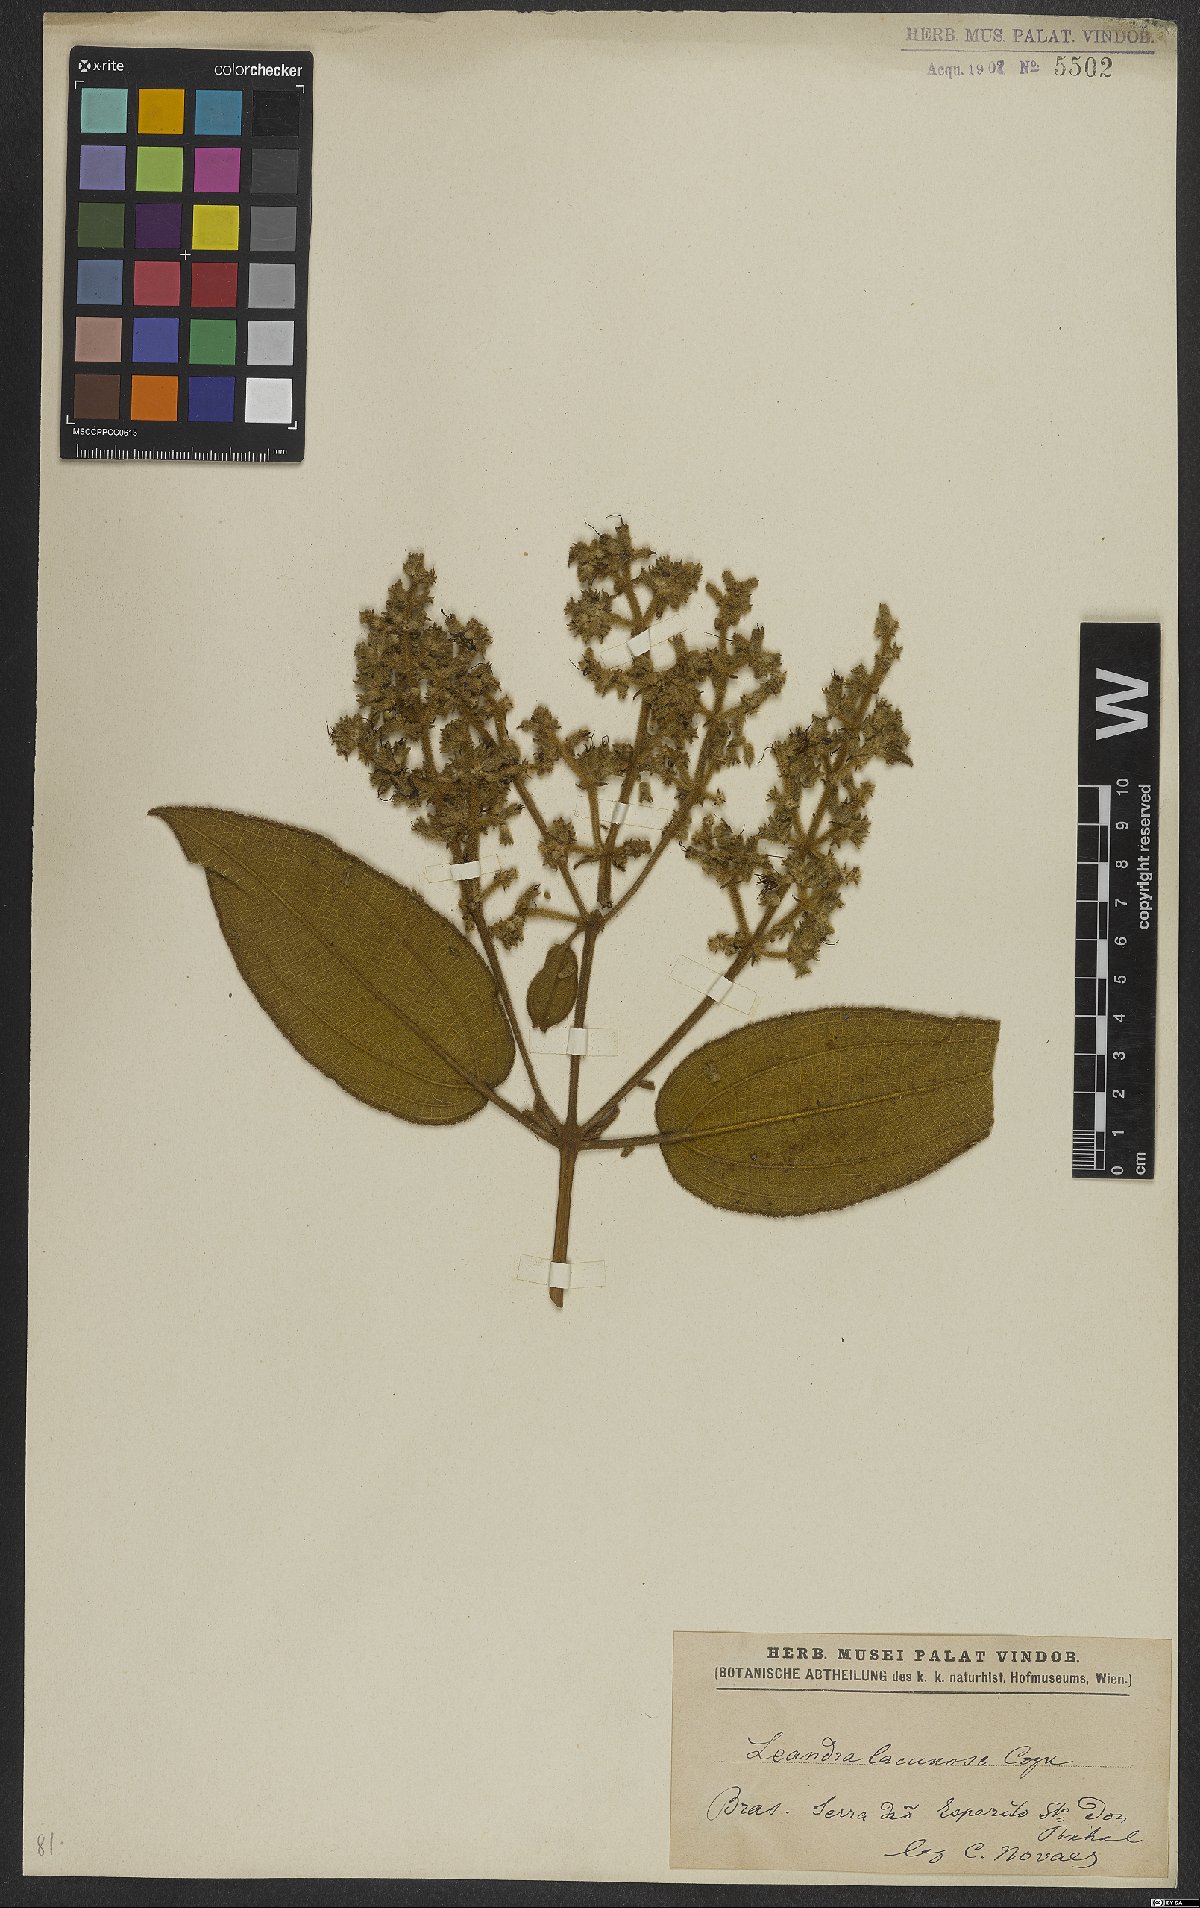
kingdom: Plantae
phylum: Tracheophyta
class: Magnoliopsida
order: Myrtales
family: Melastomataceae
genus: Miconia
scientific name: Miconia lacunosa
